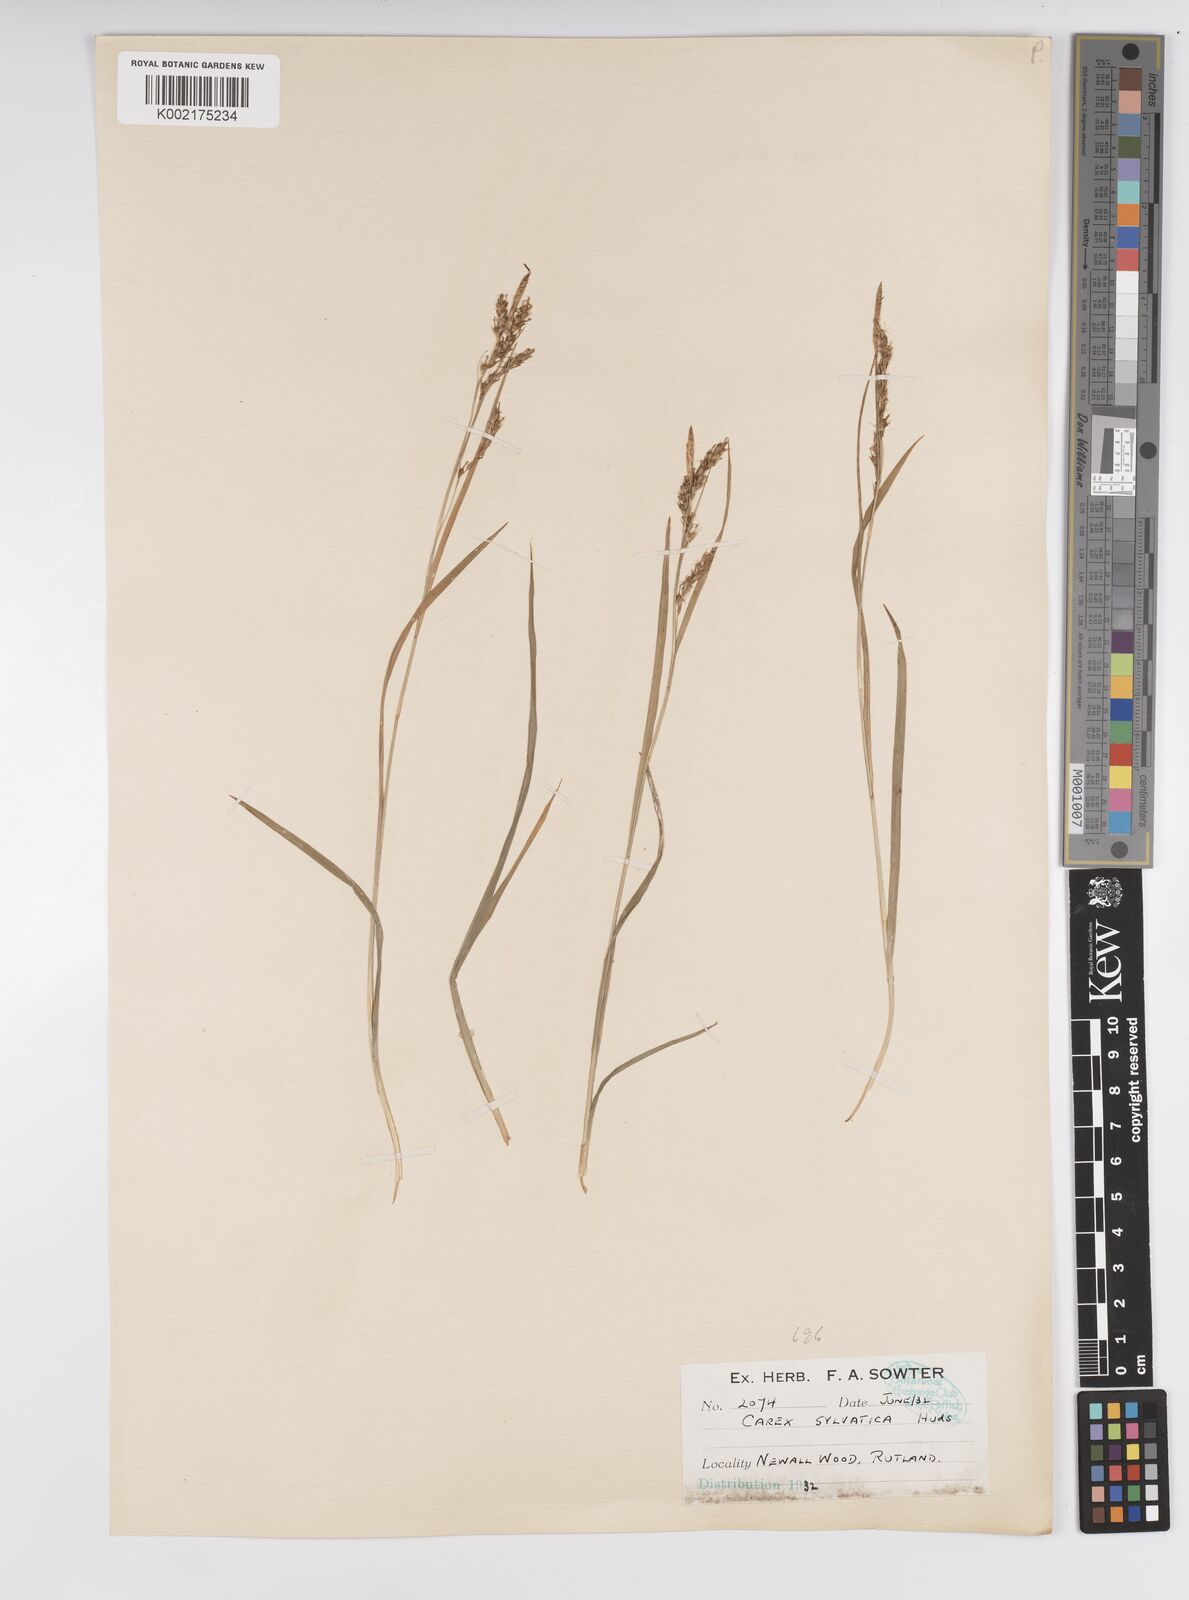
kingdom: Plantae
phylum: Tracheophyta
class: Liliopsida
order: Poales
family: Cyperaceae
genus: Carex
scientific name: Carex sylvatica
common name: Wood-sedge
